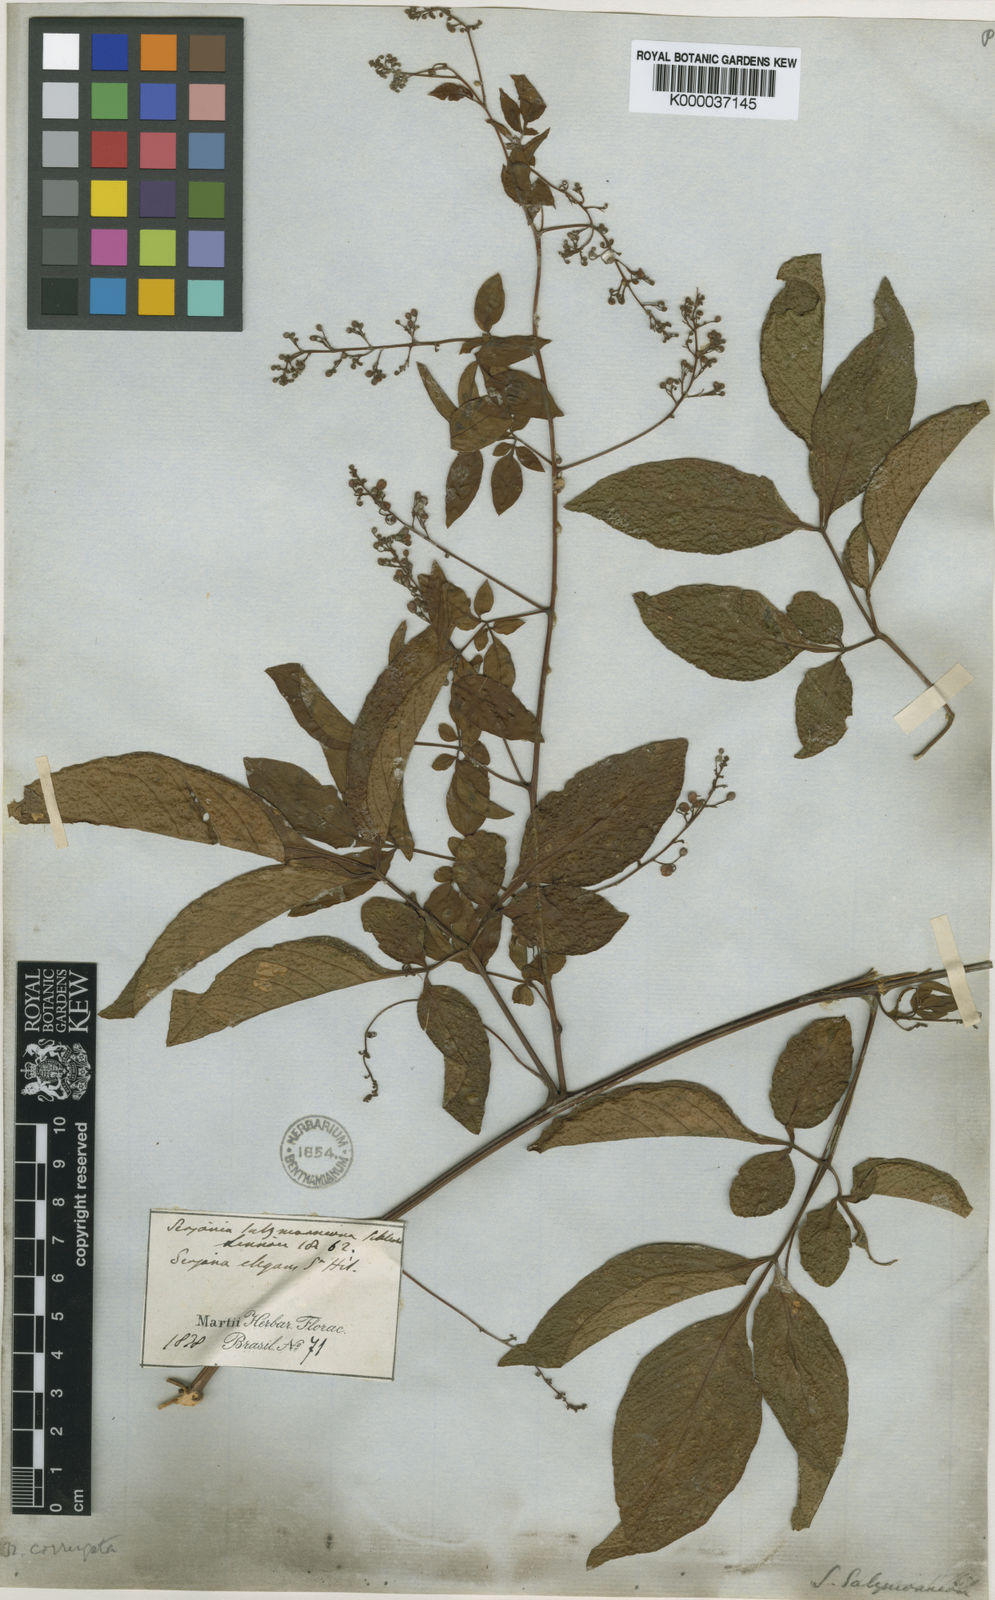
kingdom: Plantae
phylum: Tracheophyta
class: Magnoliopsida
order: Sapindales
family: Sapindaceae
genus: Serjania
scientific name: Serjania corrugata
